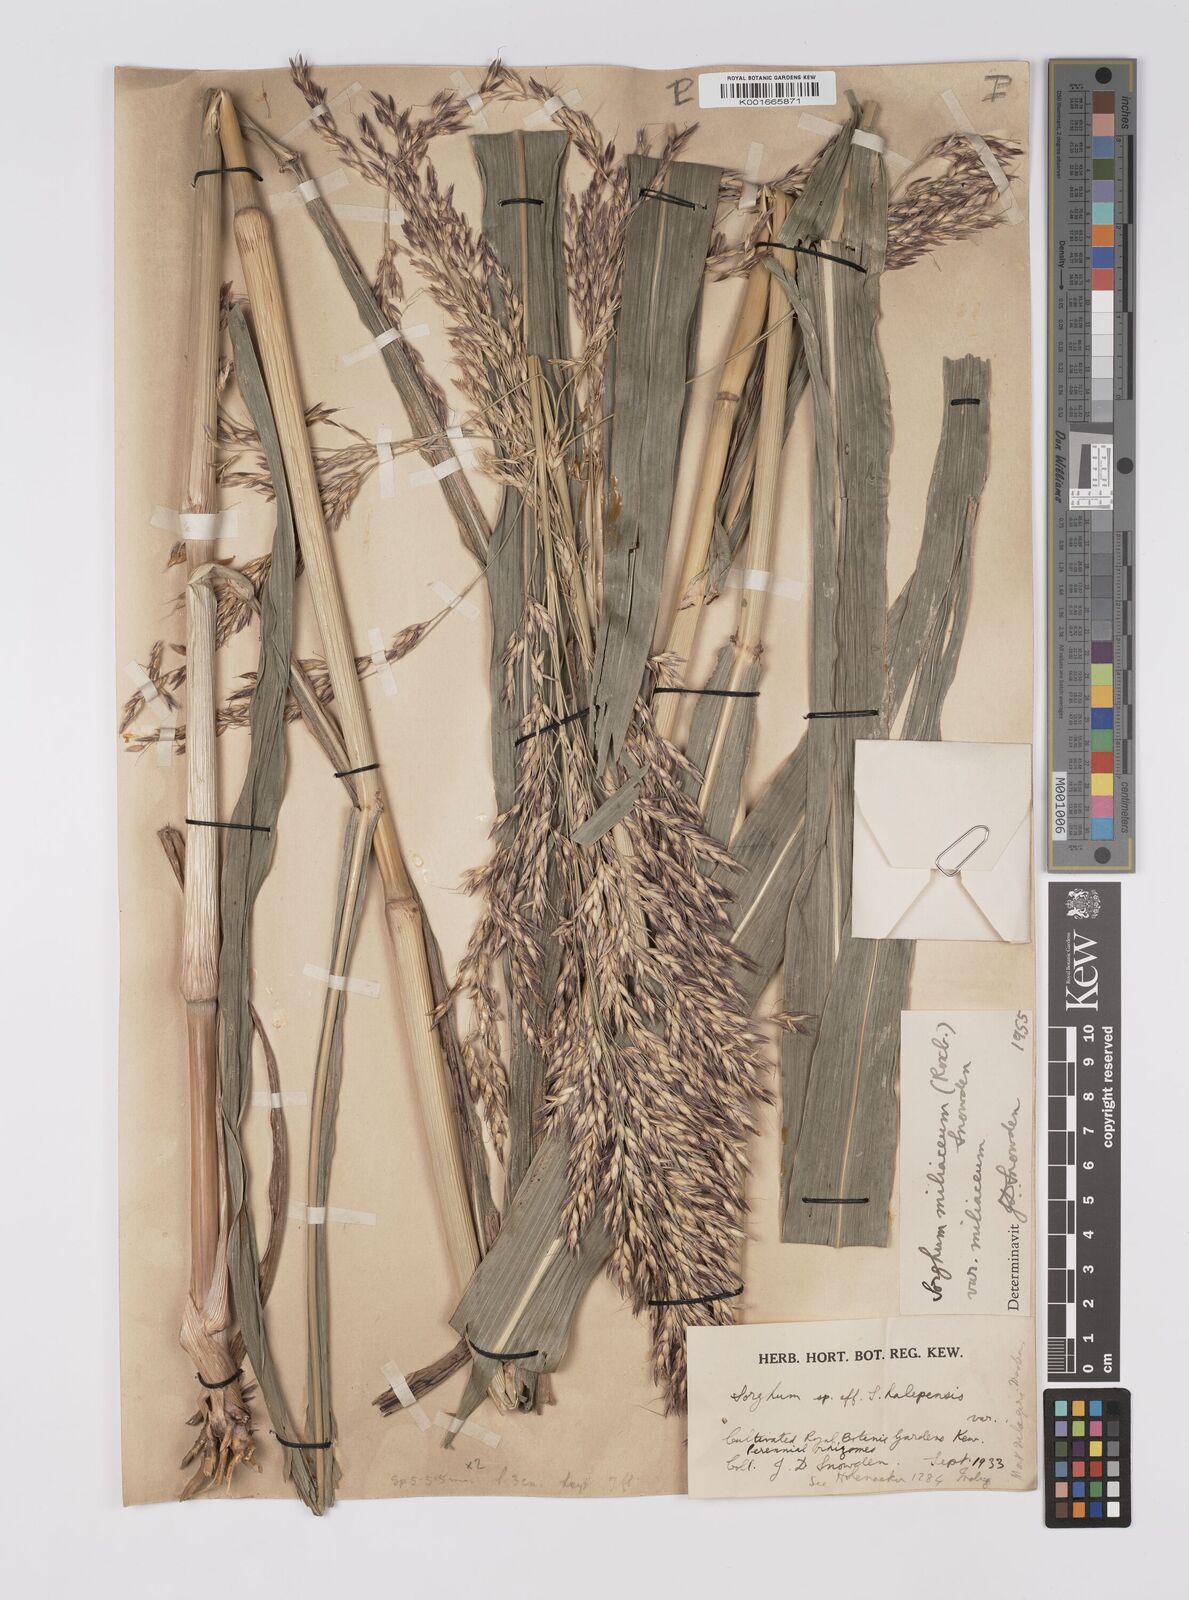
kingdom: Plantae
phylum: Tracheophyta
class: Liliopsida
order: Poales
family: Poaceae
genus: Sorghum
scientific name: Sorghum halepense
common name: Johnson-grass
